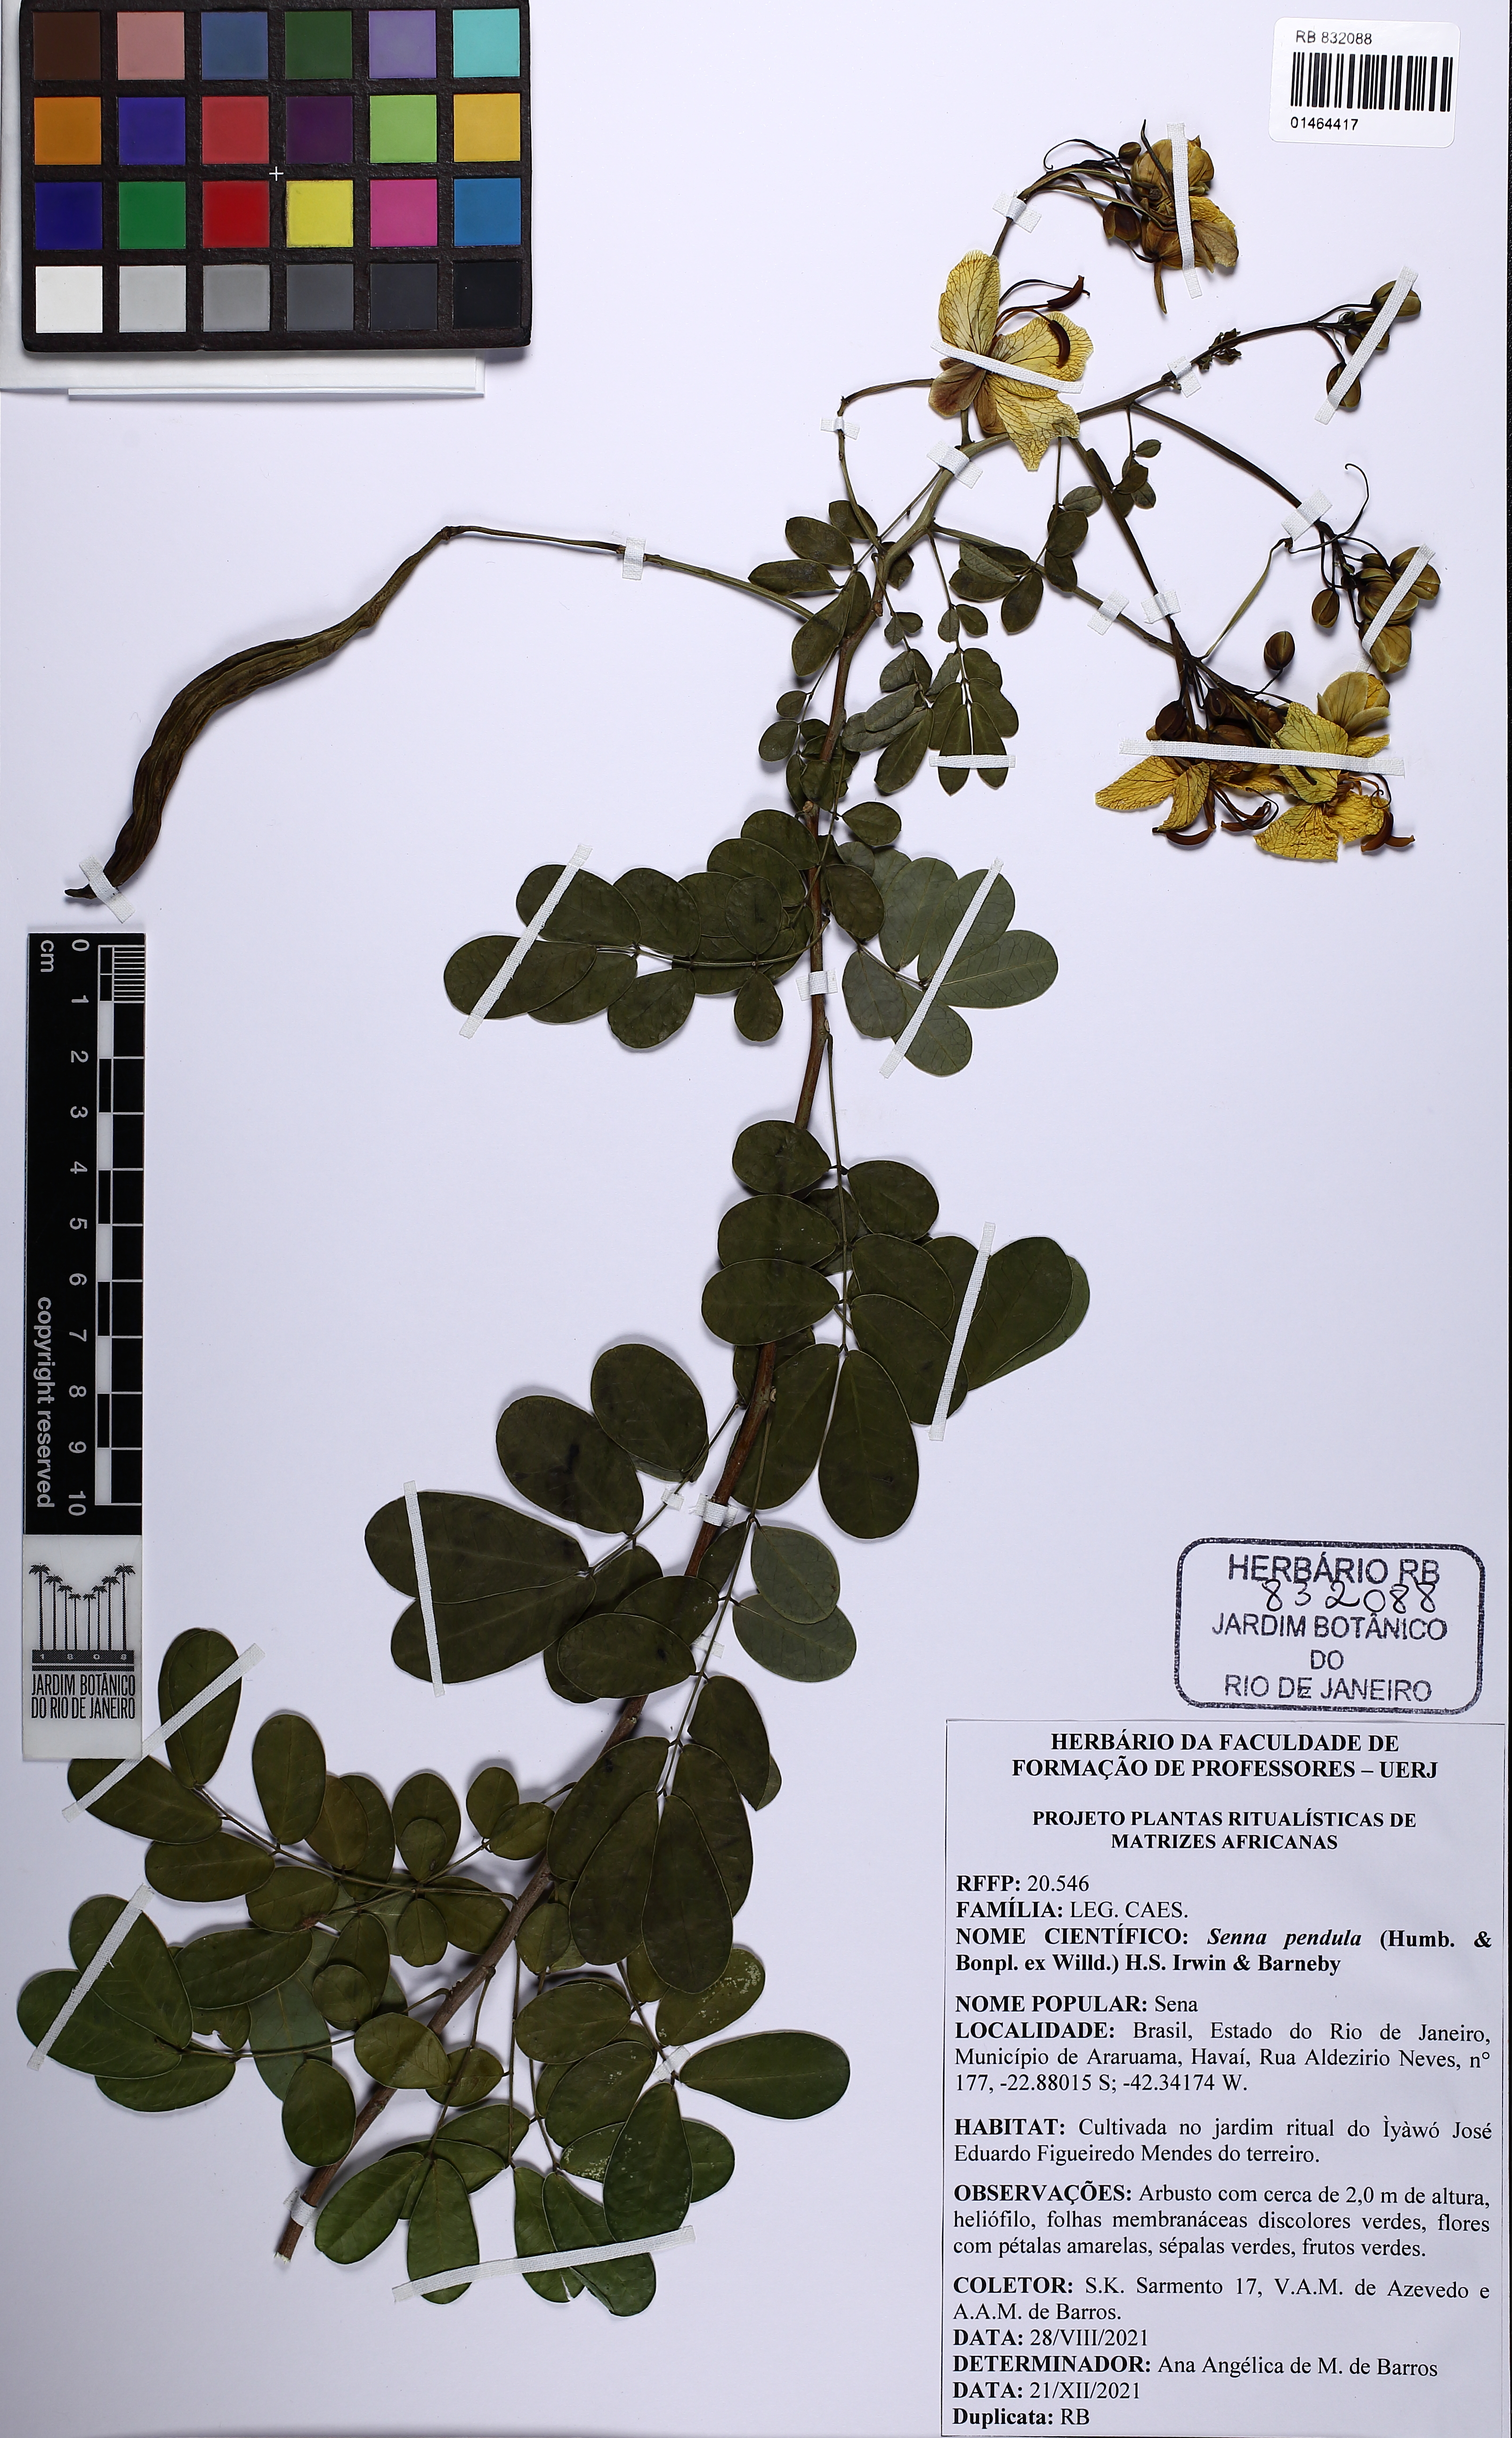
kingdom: Plantae
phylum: Tracheophyta
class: Magnoliopsida
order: Fabales
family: Fabaceae
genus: Senna
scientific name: Senna pendula
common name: Easter cassia
